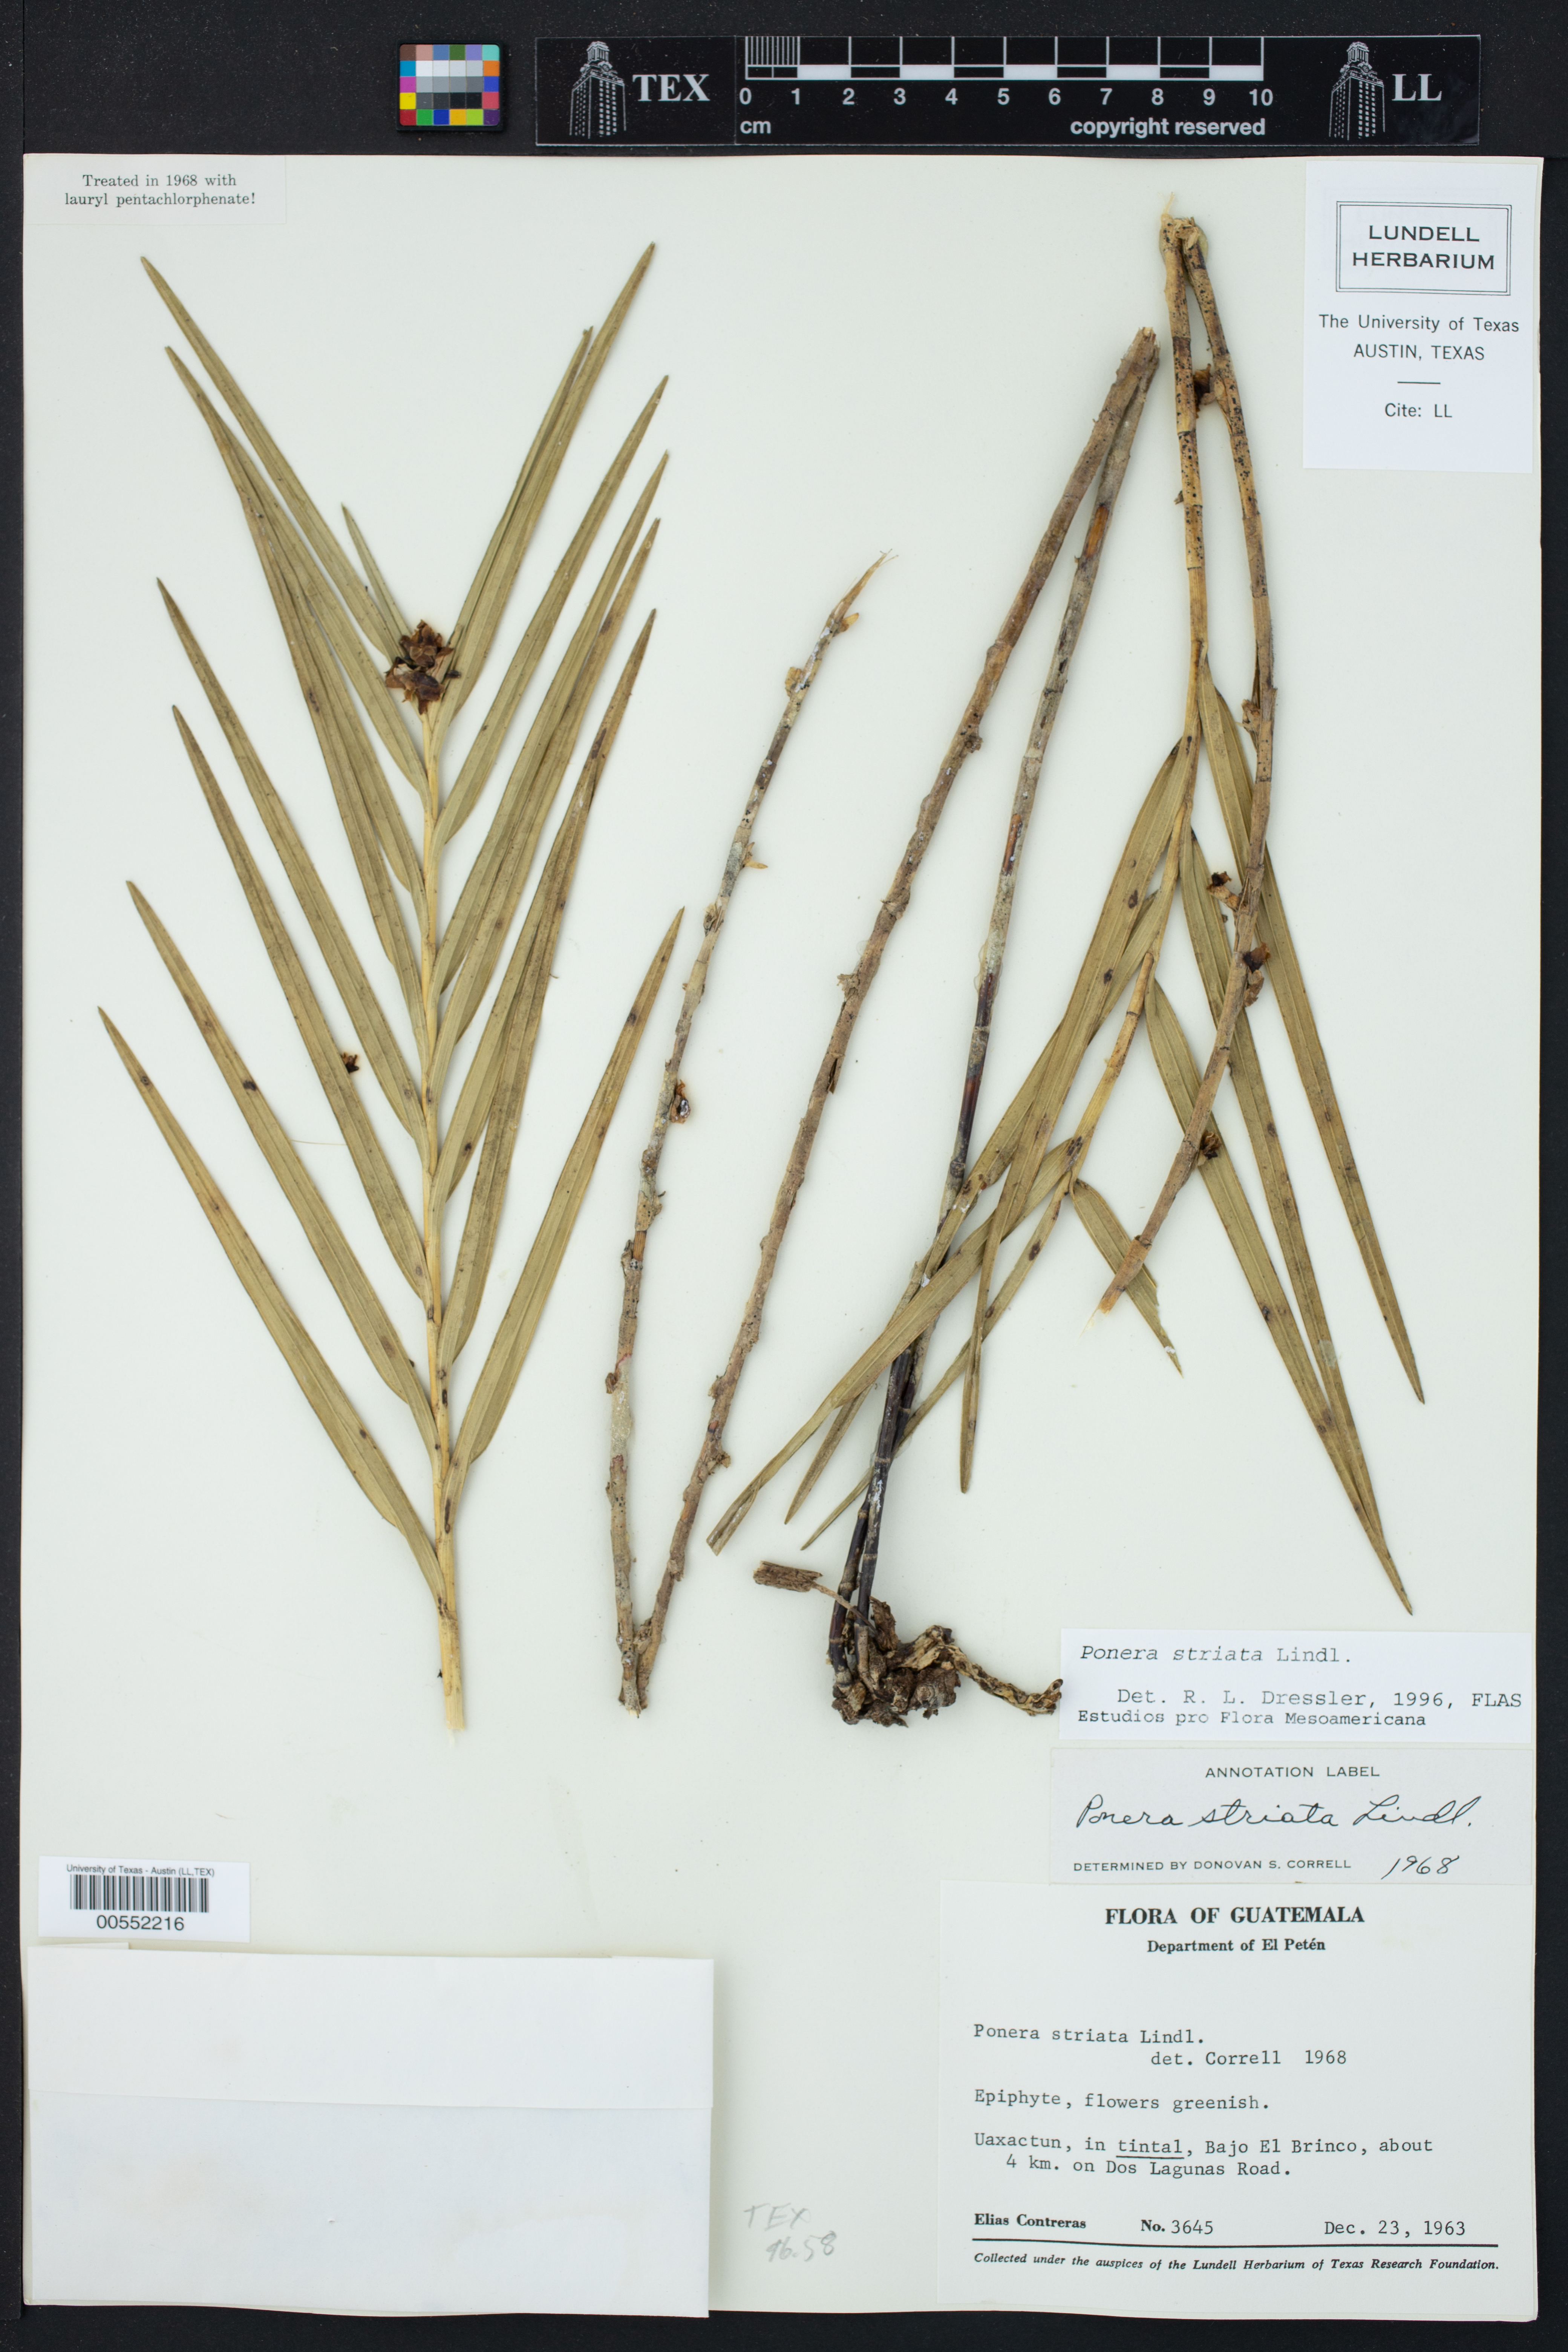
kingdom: Plantae
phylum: Tracheophyta
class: Liliopsida
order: Asparagales
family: Orchidaceae
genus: Nemaconia
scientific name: Nemaconia striata
